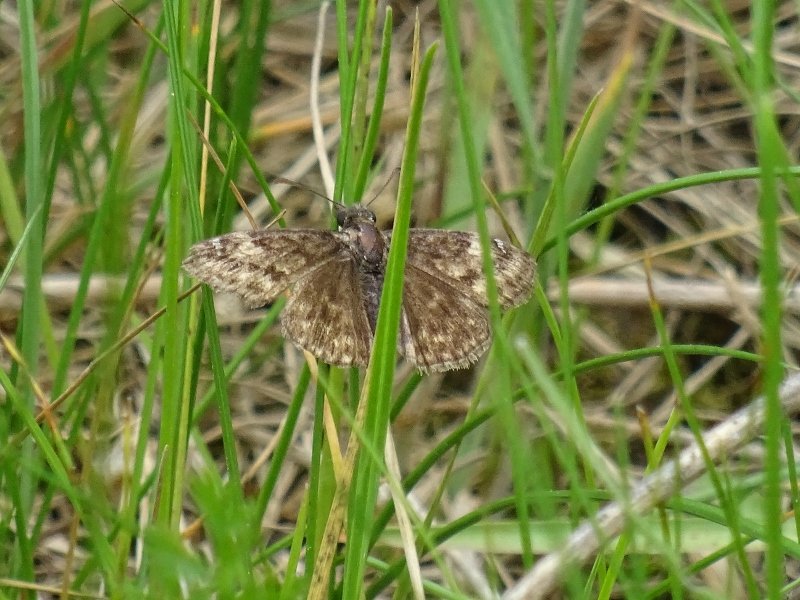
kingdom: Animalia
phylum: Arthropoda
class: Insecta
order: Lepidoptera
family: Hesperiidae
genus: Erynnis
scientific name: Erynnis
